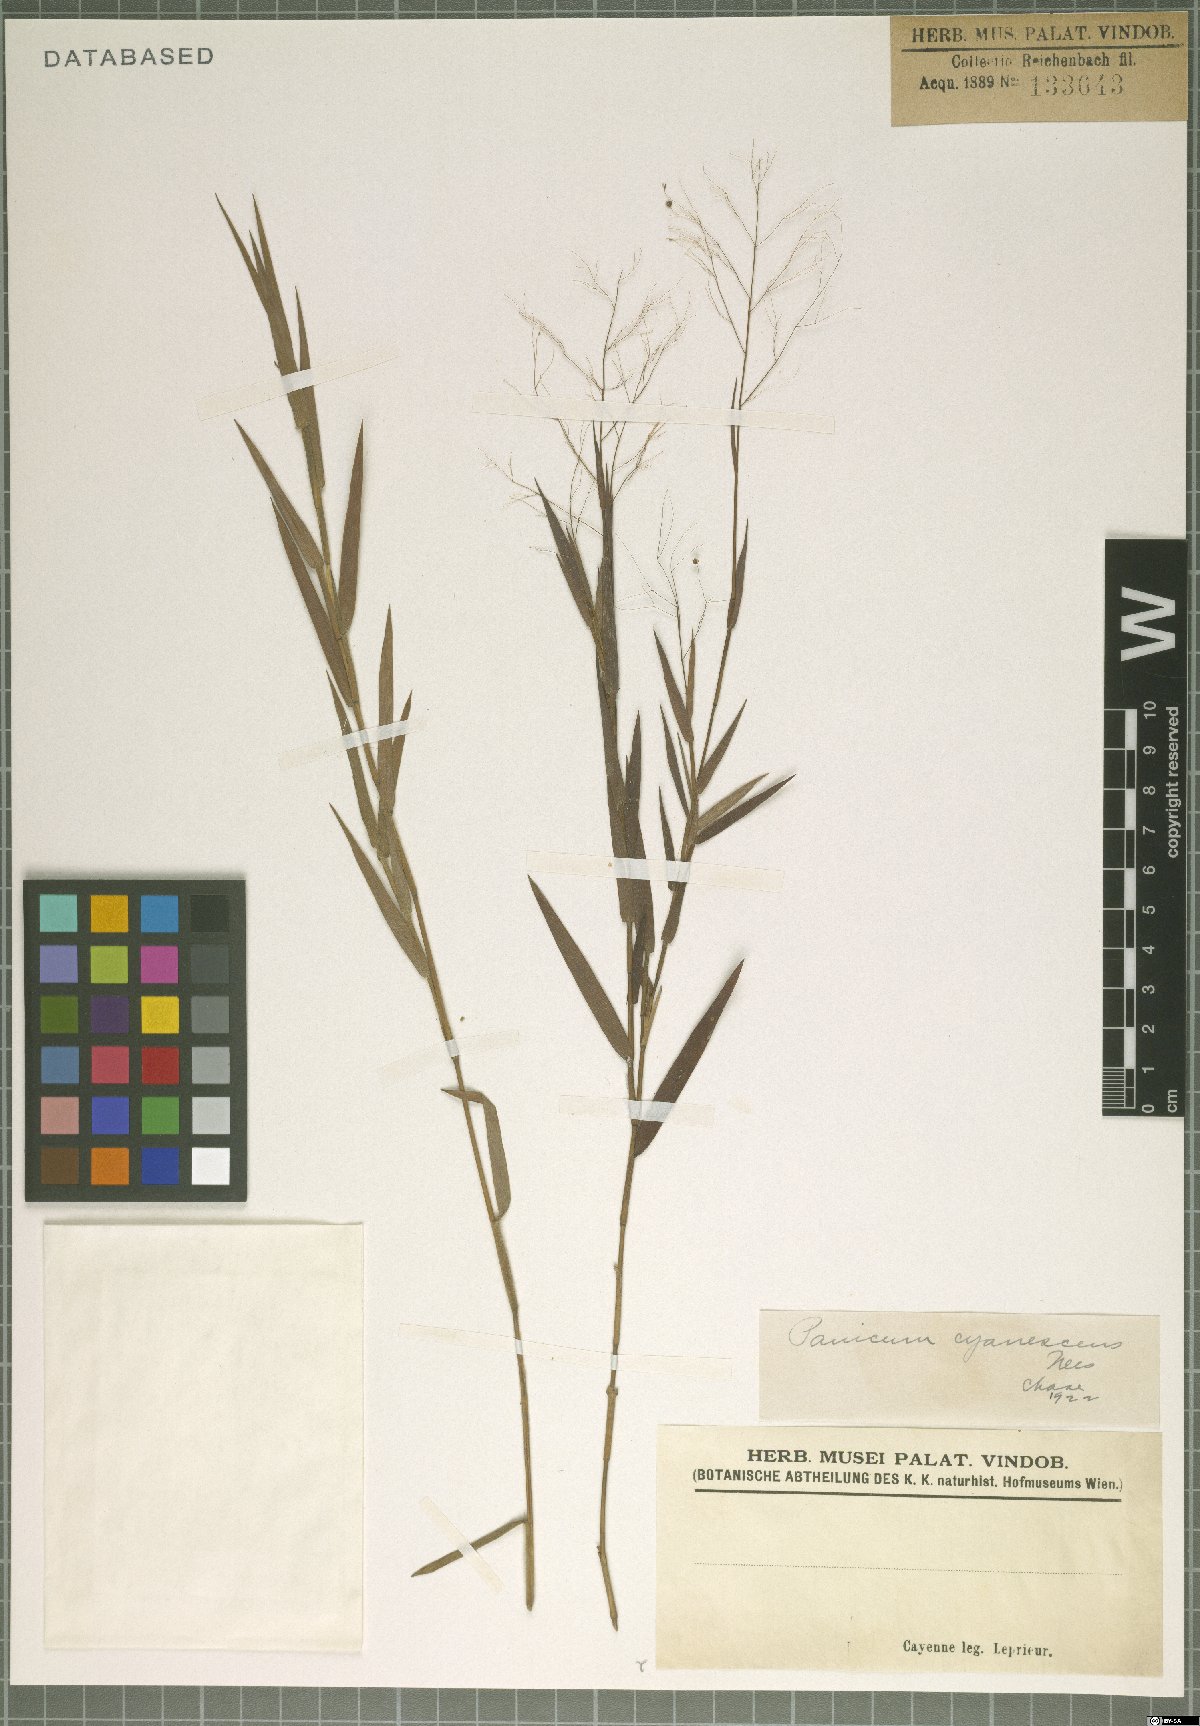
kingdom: Plantae
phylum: Tracheophyta
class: Liliopsida
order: Poales
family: Poaceae
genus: Trichanthecium
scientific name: Trichanthecium cyanescens
